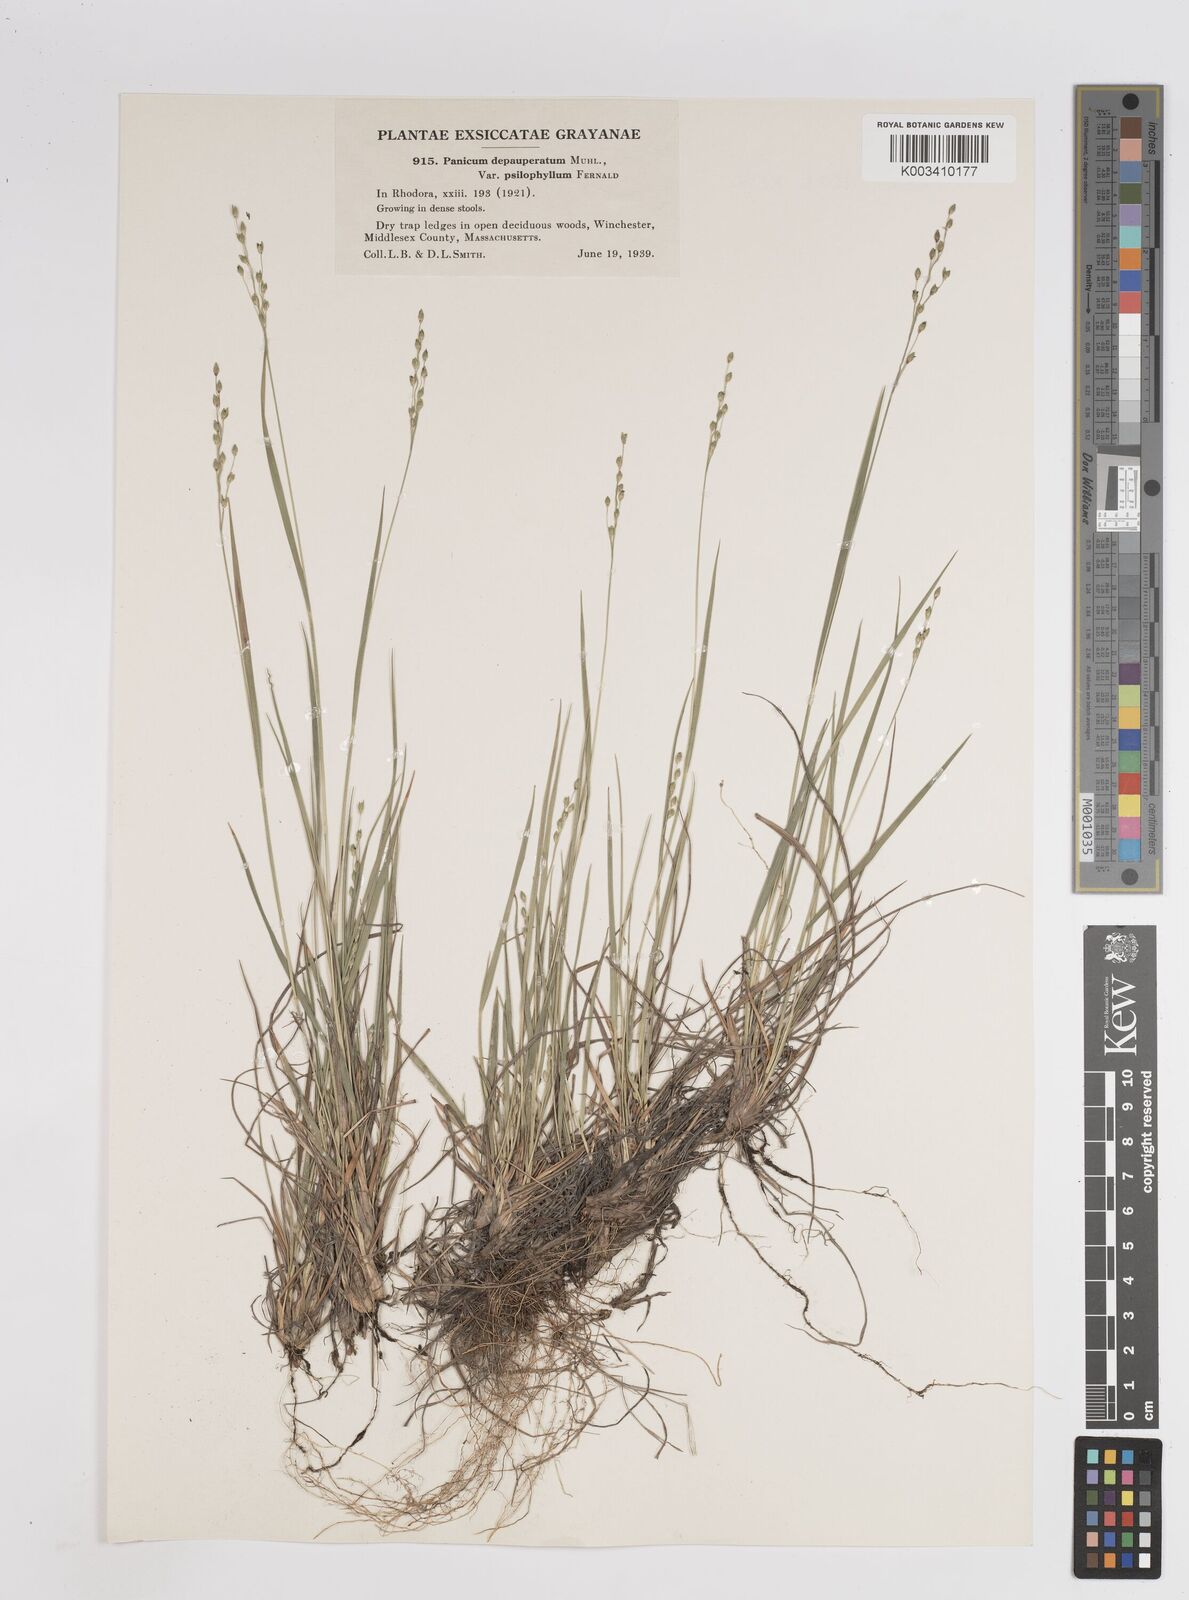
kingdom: Plantae
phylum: Tracheophyta
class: Liliopsida
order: Poales
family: Poaceae
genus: Dichanthelium
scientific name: Dichanthelium depauperatum
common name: Depauperate panicgrass
